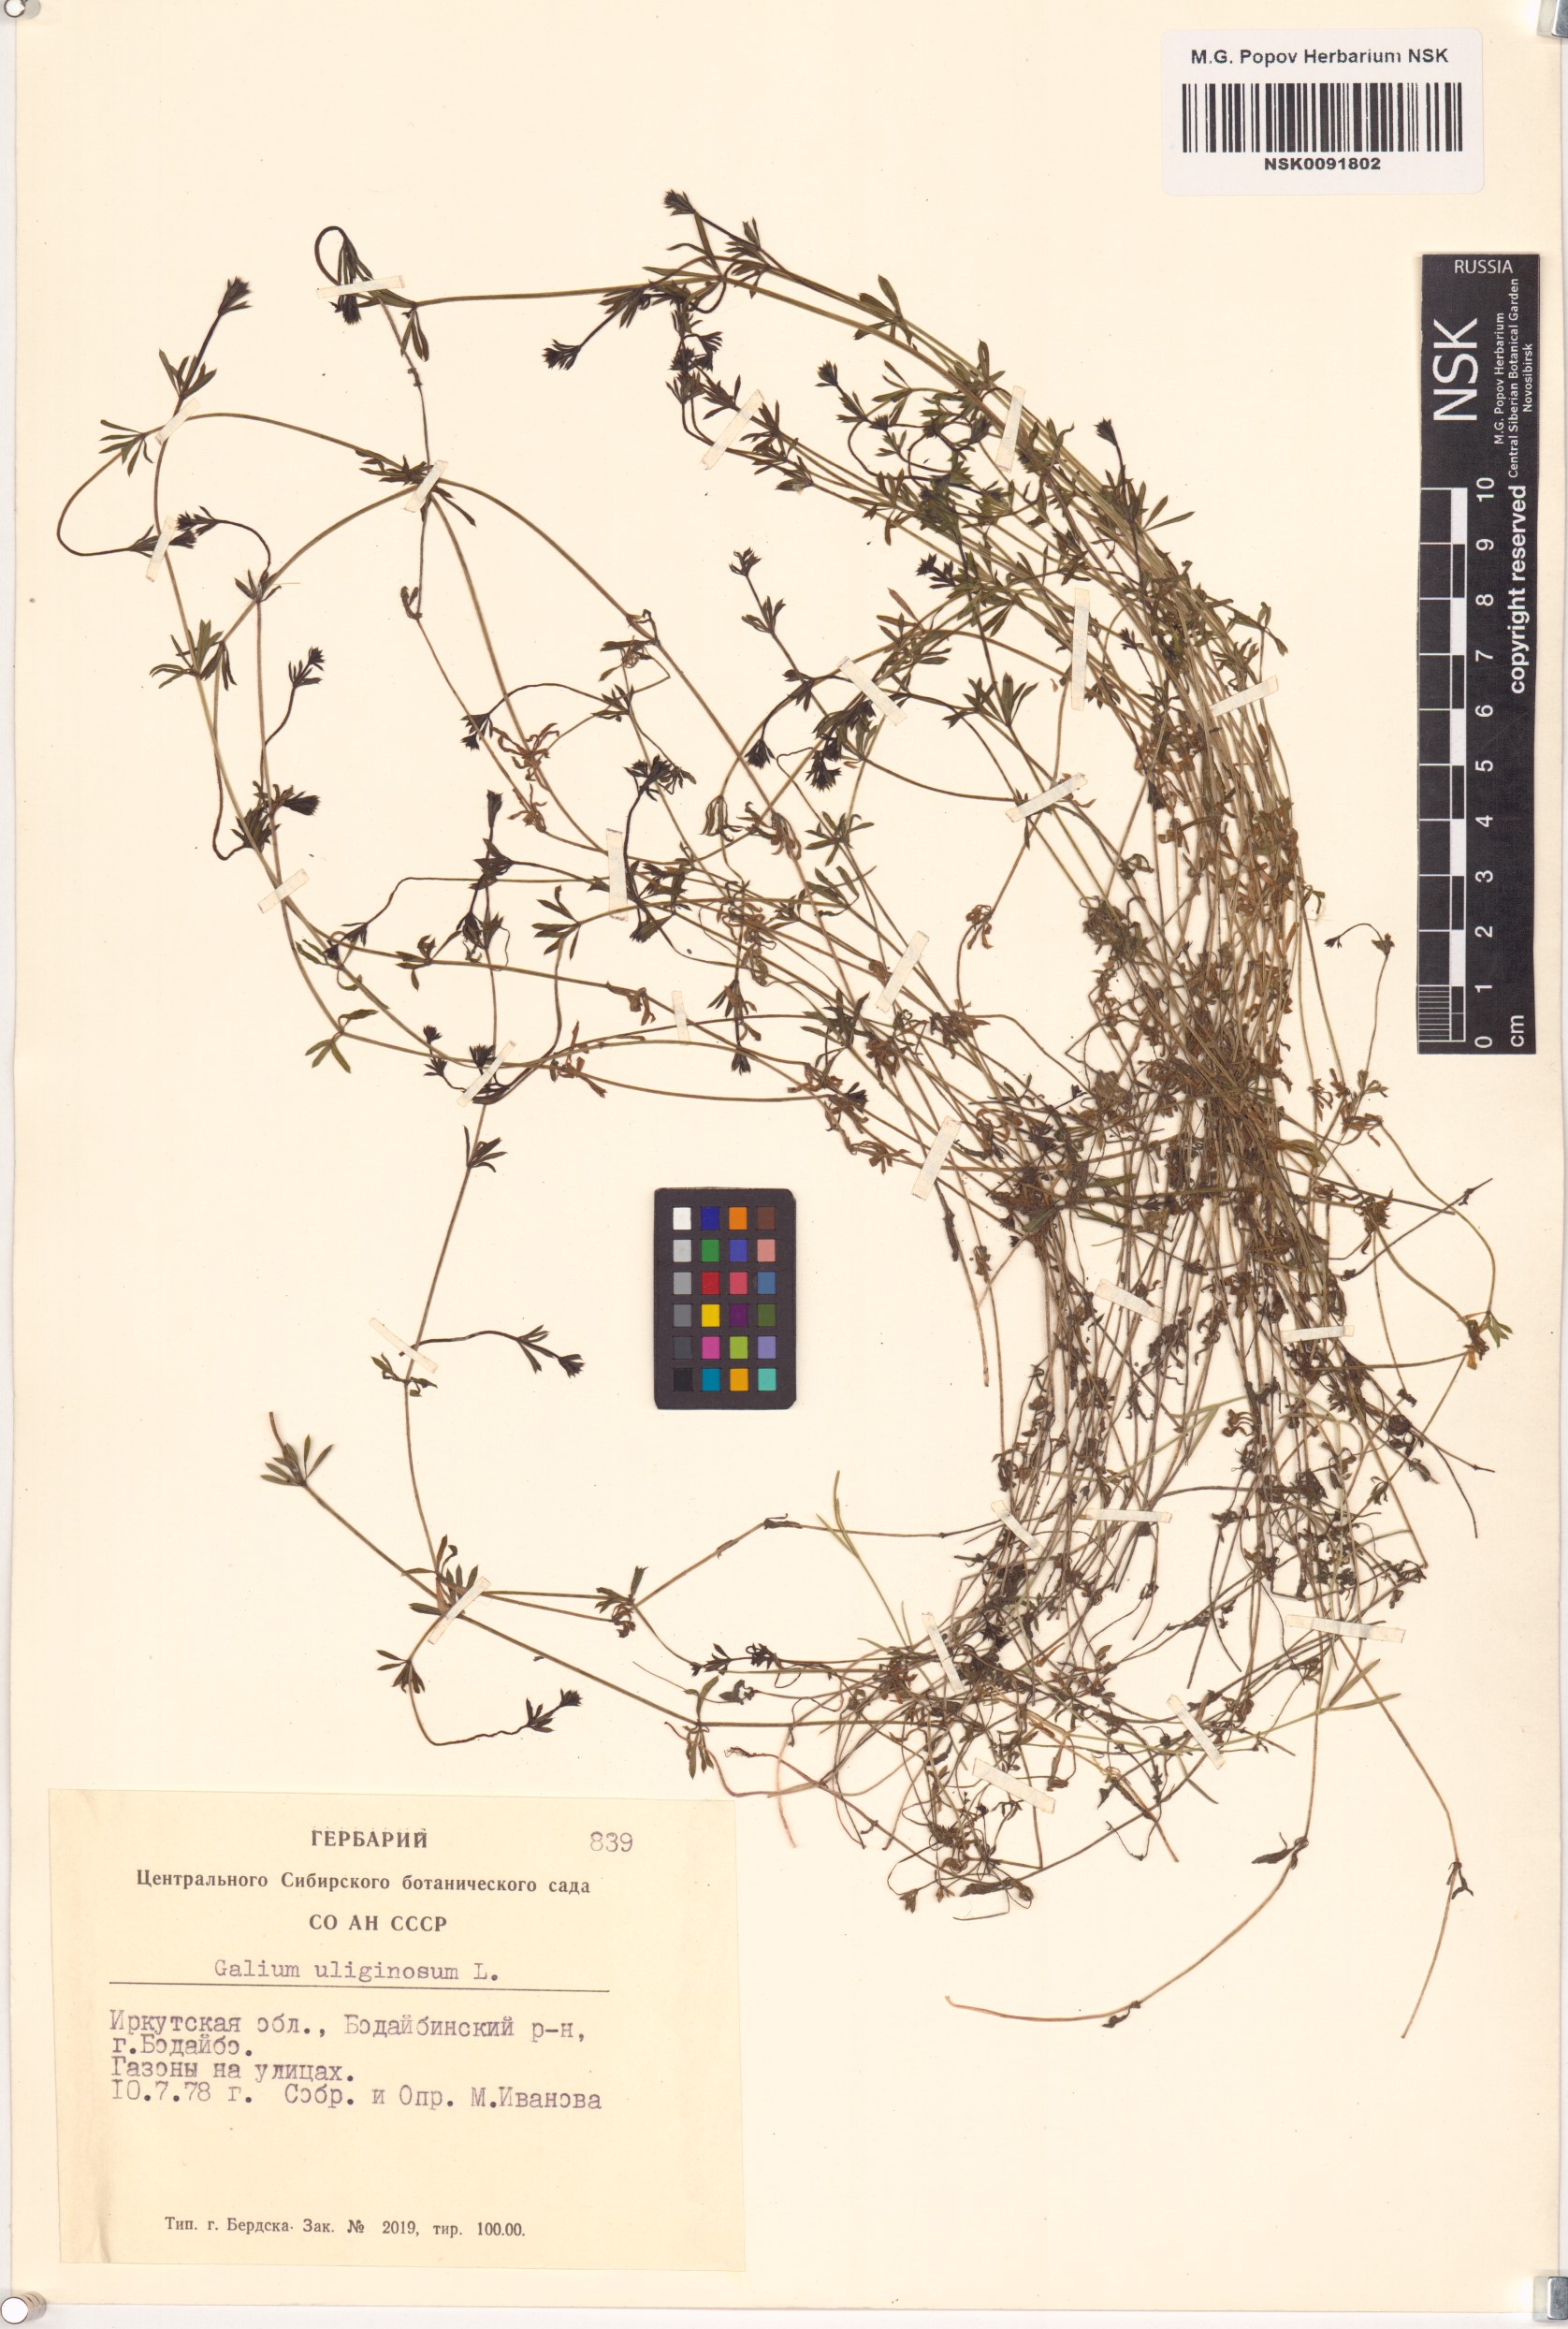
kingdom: Plantae
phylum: Tracheophyta
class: Magnoliopsida
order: Gentianales
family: Rubiaceae
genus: Galium
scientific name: Galium uliginosum
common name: Fen bedstraw
